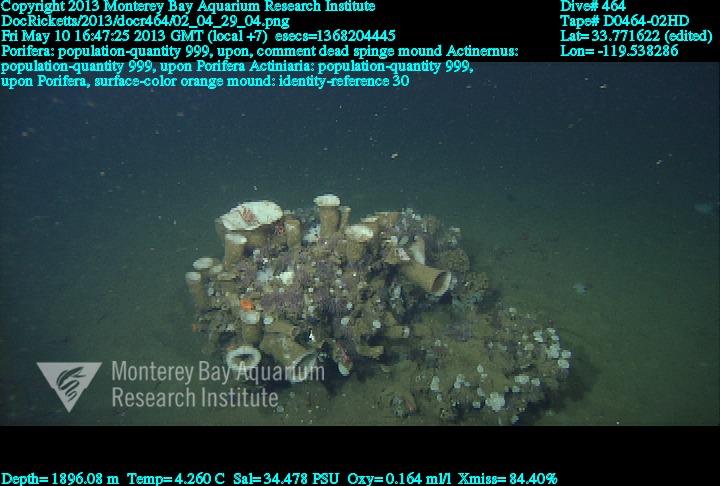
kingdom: Animalia
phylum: Porifera
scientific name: Porifera
